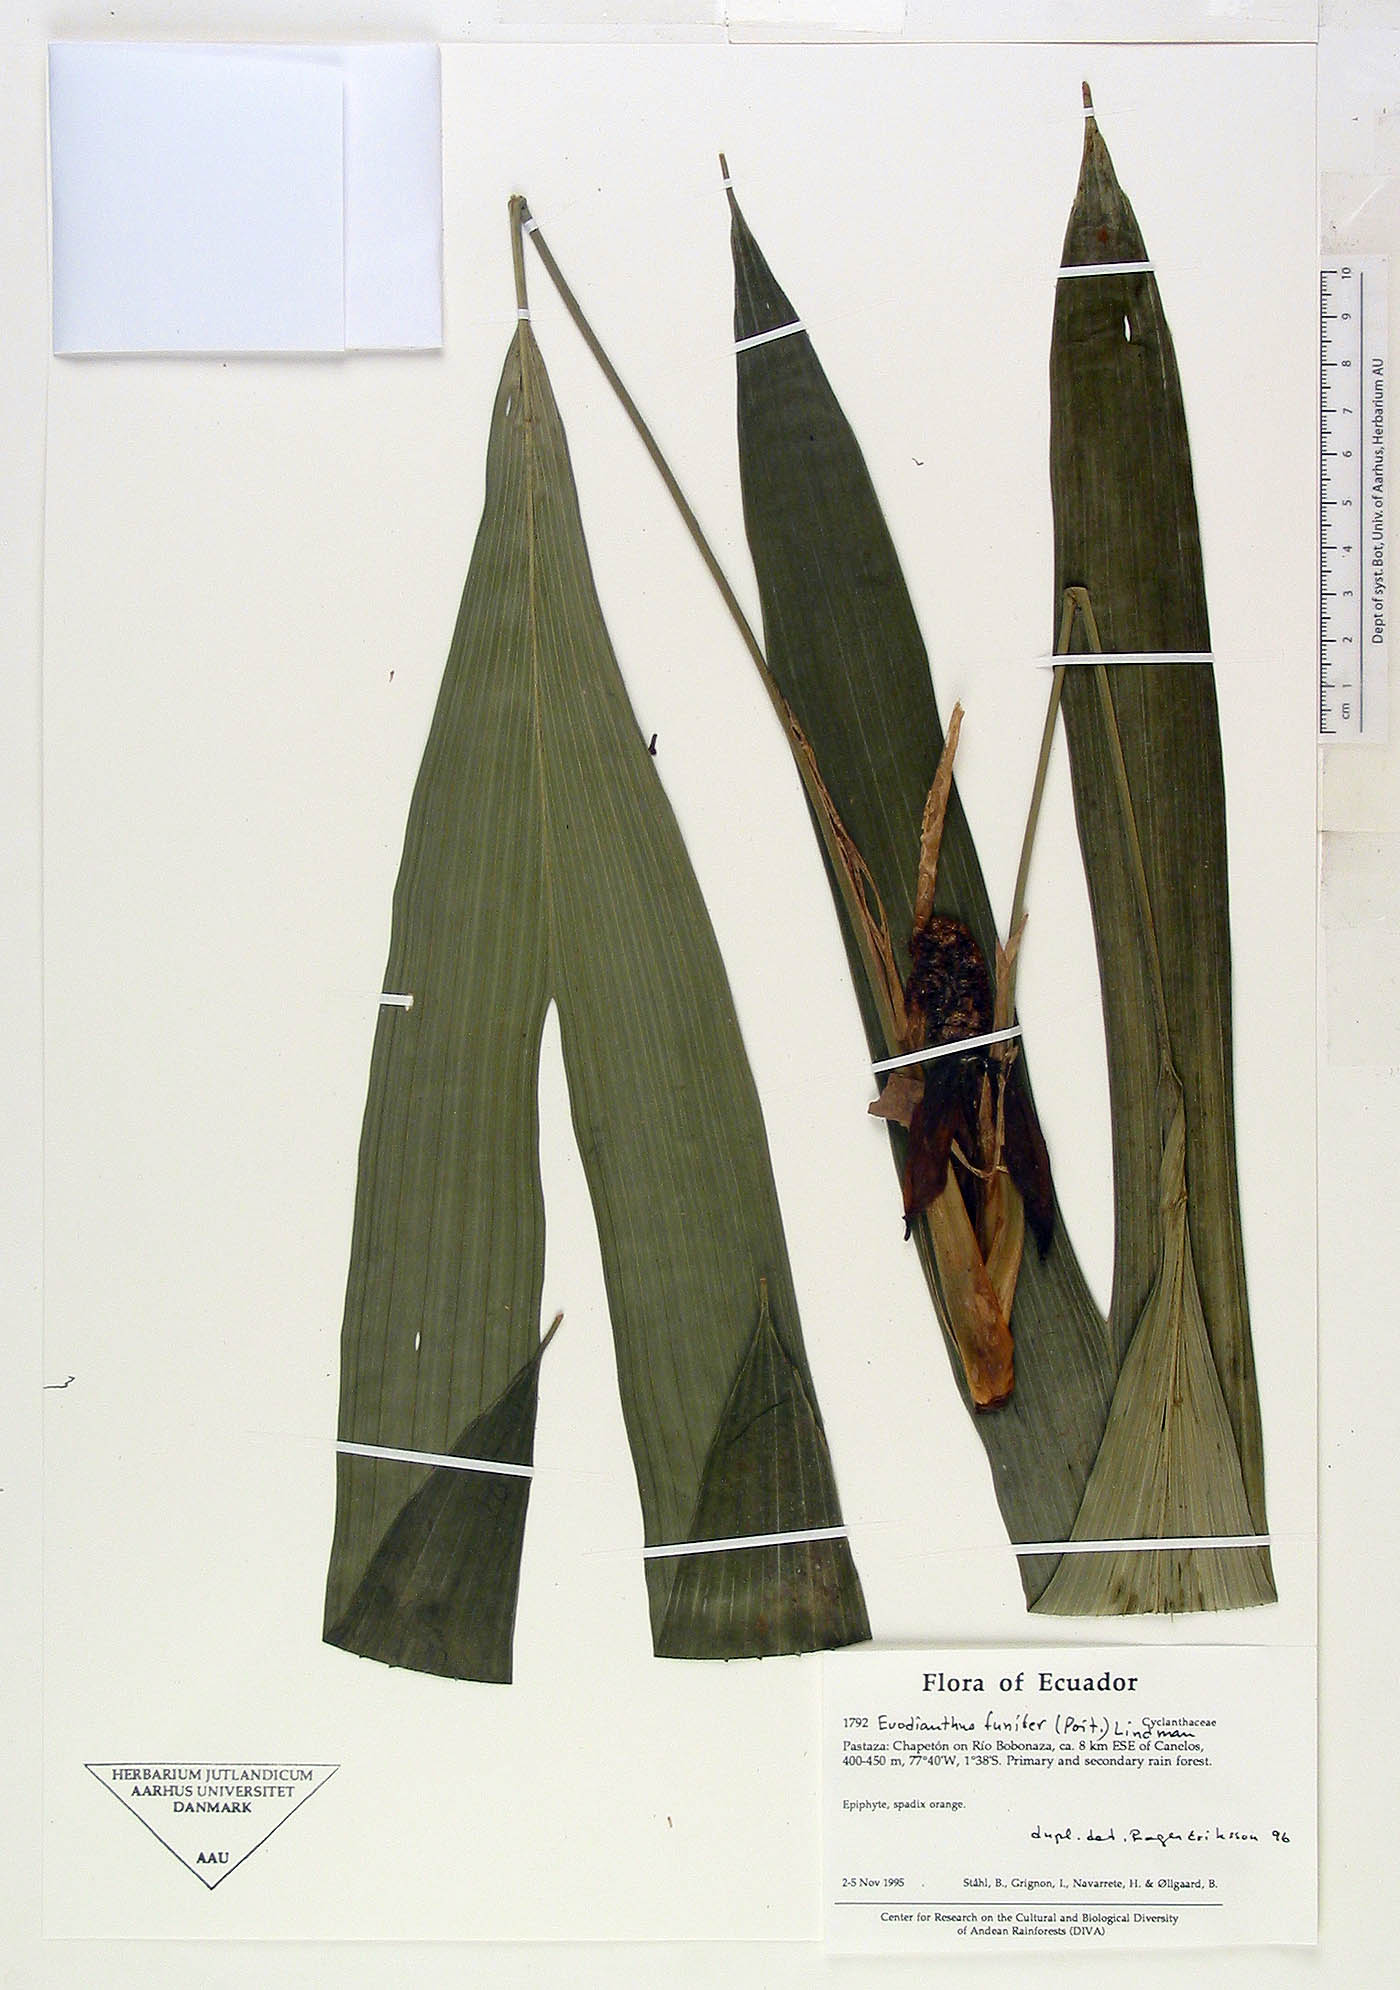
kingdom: Plantae
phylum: Tracheophyta
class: Liliopsida
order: Pandanales
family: Cyclanthaceae
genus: Evodianthus
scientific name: Evodianthus funifer
